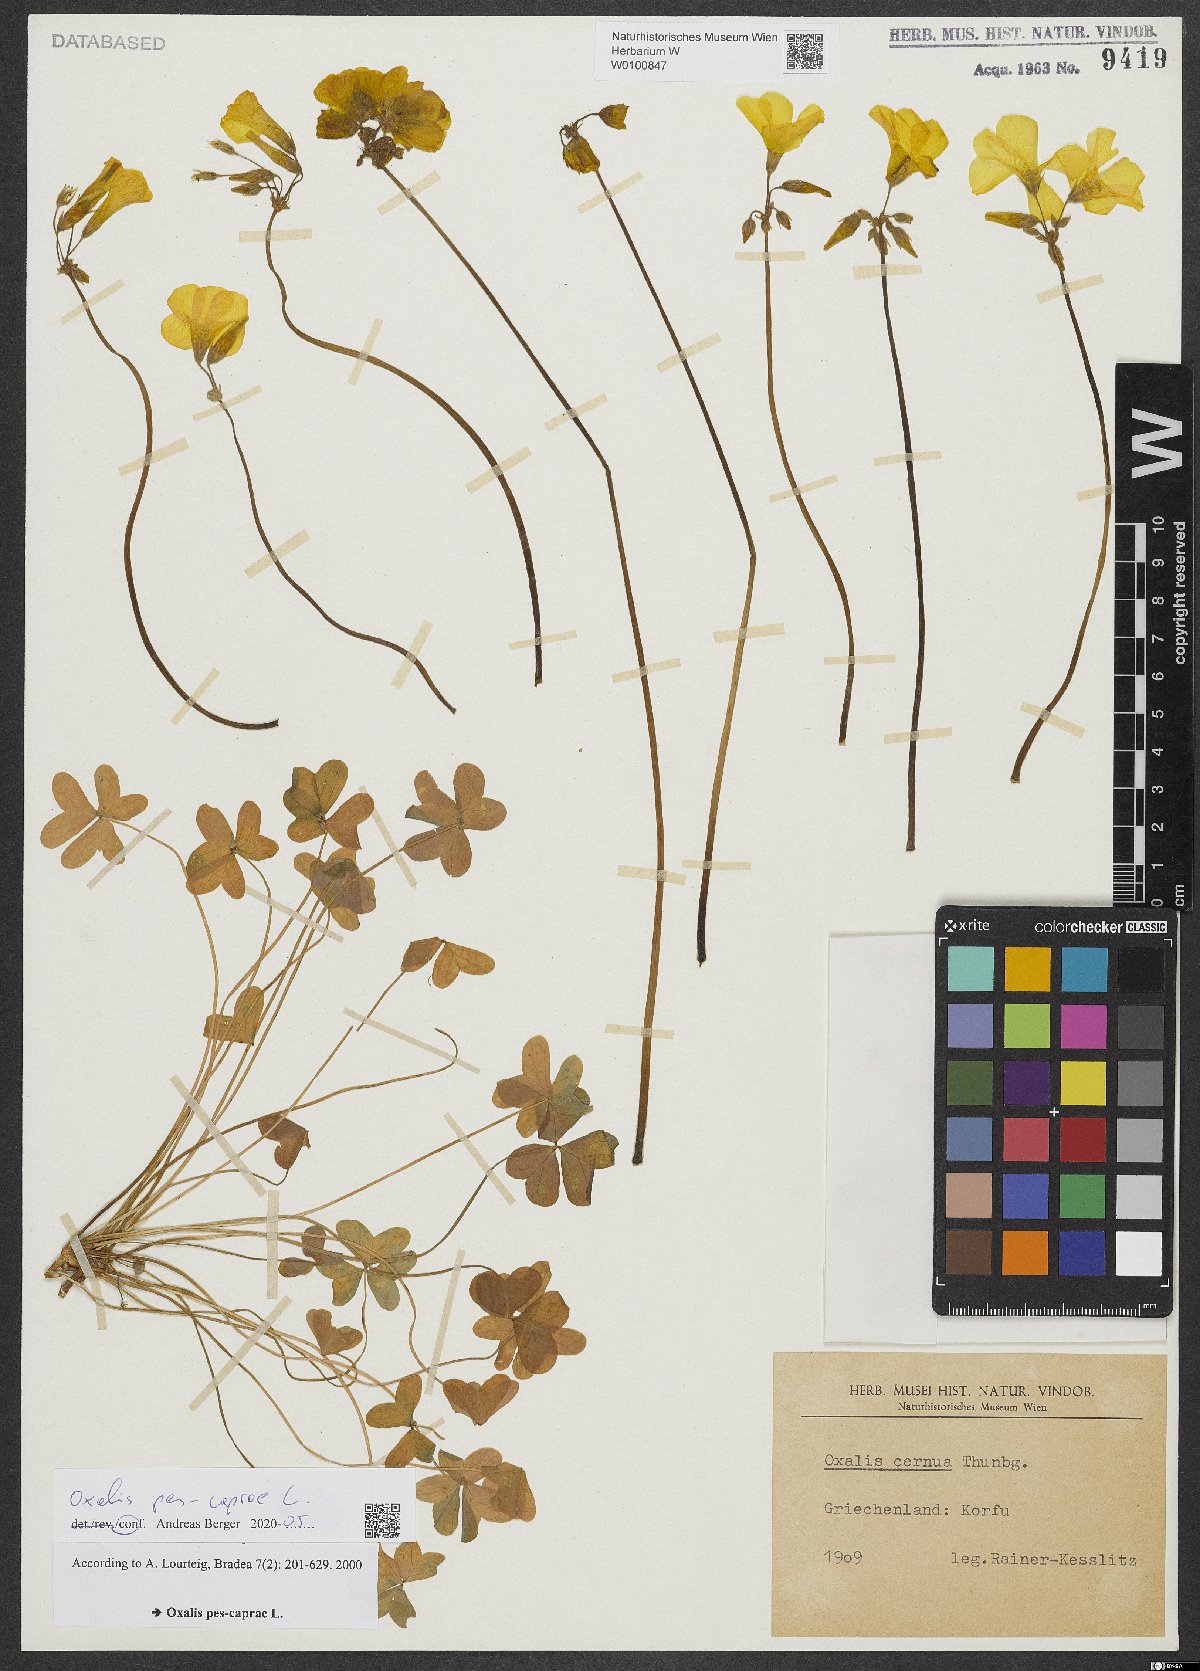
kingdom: Plantae
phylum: Tracheophyta
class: Magnoliopsida
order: Oxalidales
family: Oxalidaceae
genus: Oxalis
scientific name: Oxalis pes-caprae
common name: Bermuda-buttercup
